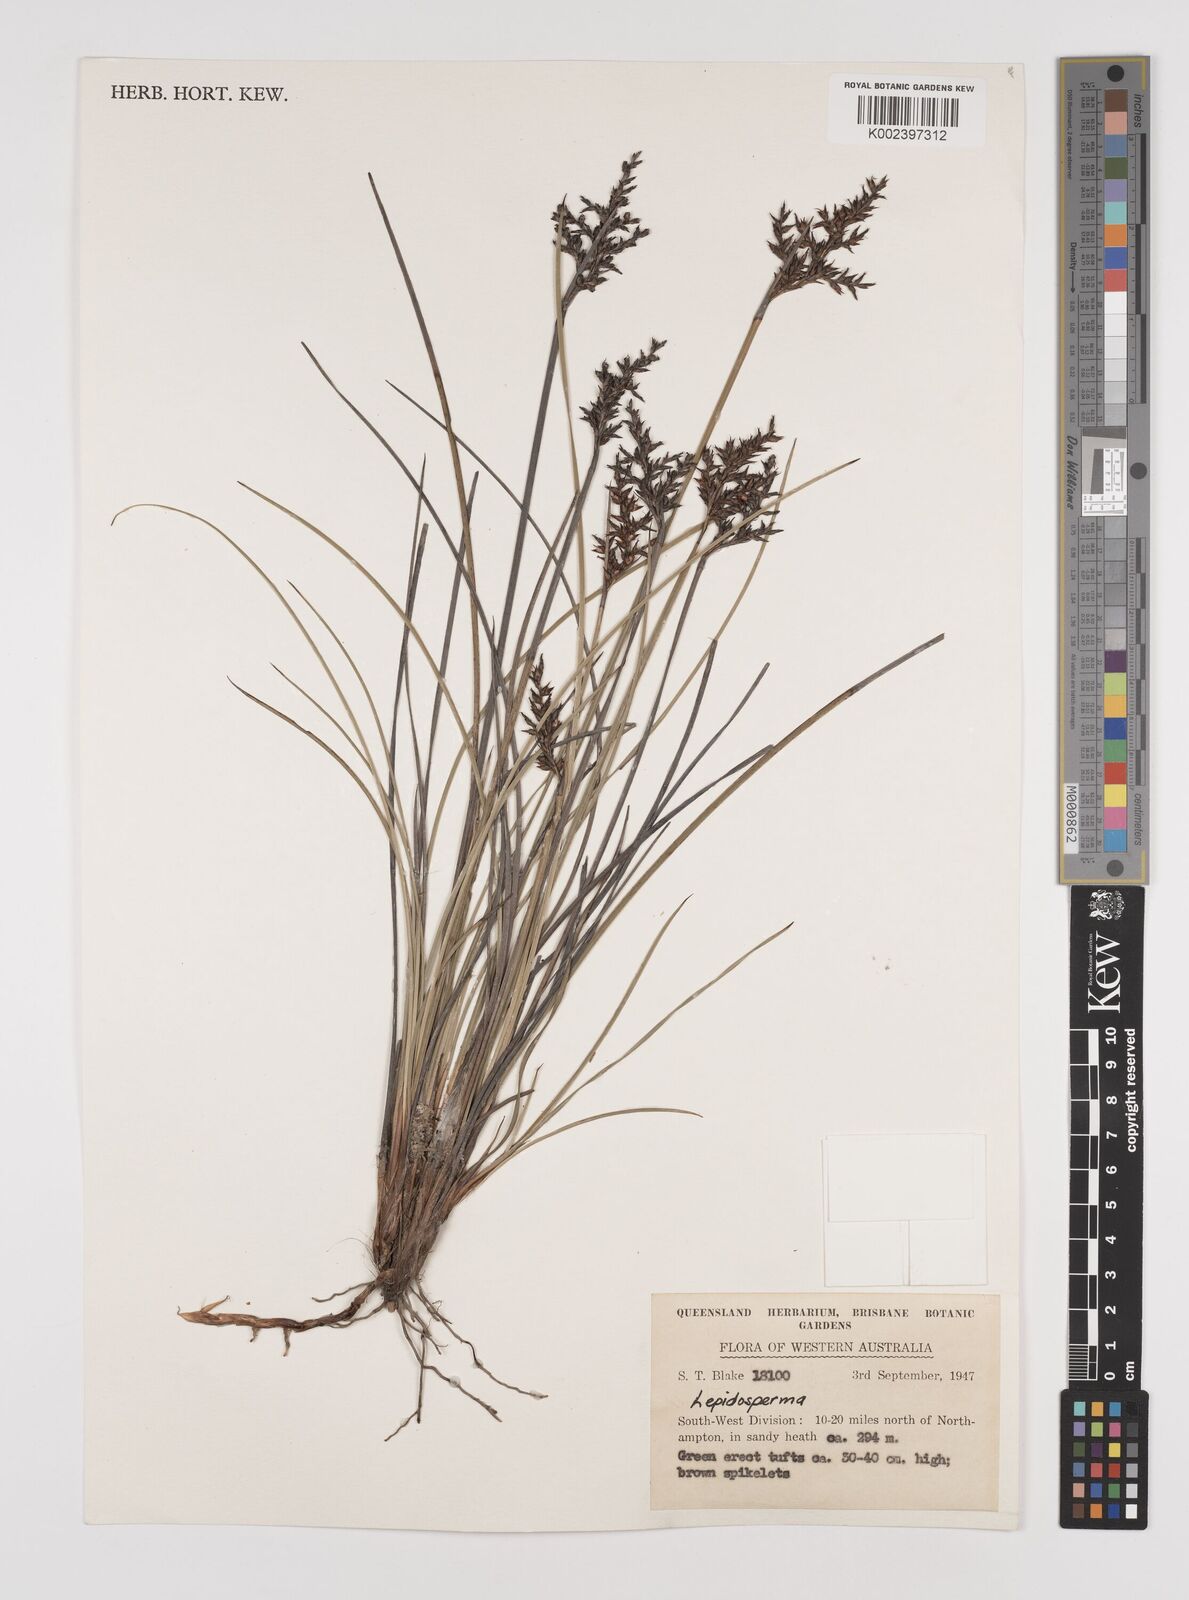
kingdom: Plantae
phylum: Tracheophyta
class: Liliopsida
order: Poales
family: Cyperaceae
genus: Lepidosperma
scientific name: Lepidosperma
